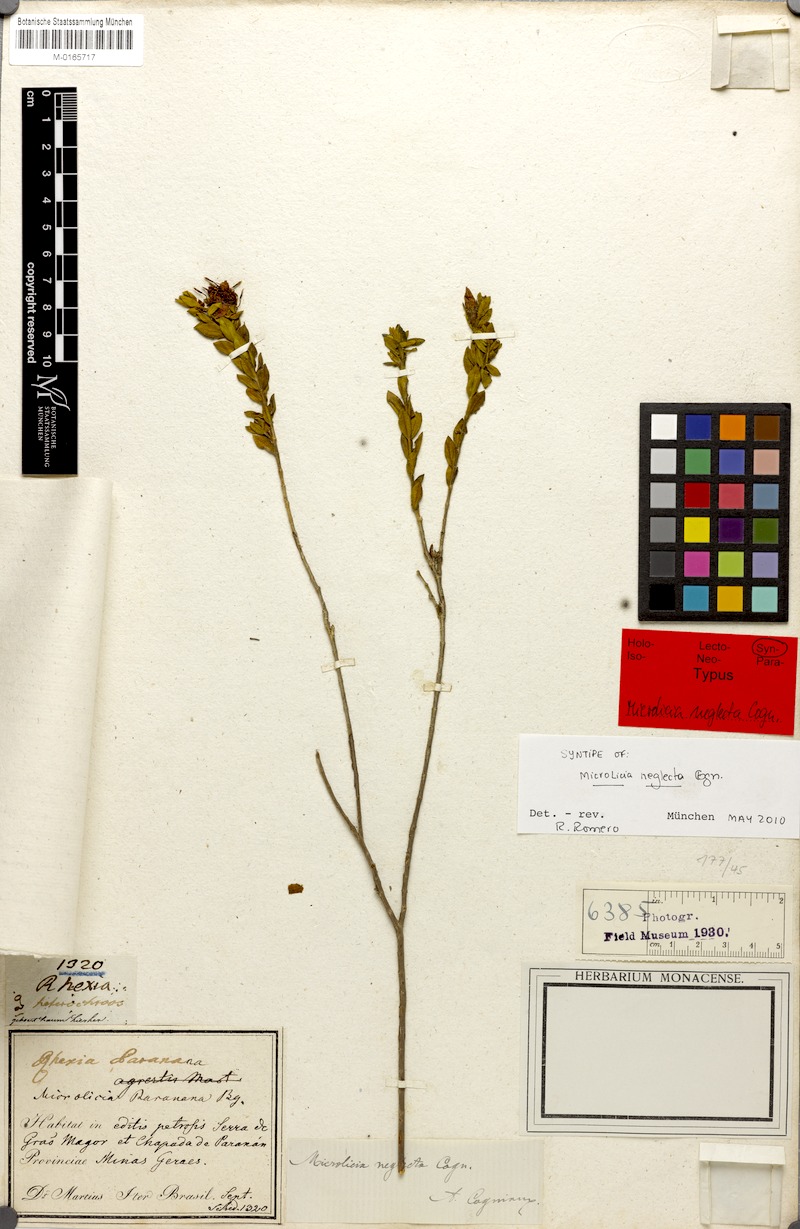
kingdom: Plantae
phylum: Tracheophyta
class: Magnoliopsida
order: Myrtales
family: Melastomataceae
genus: Microlicia
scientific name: Microlicia neglecta
